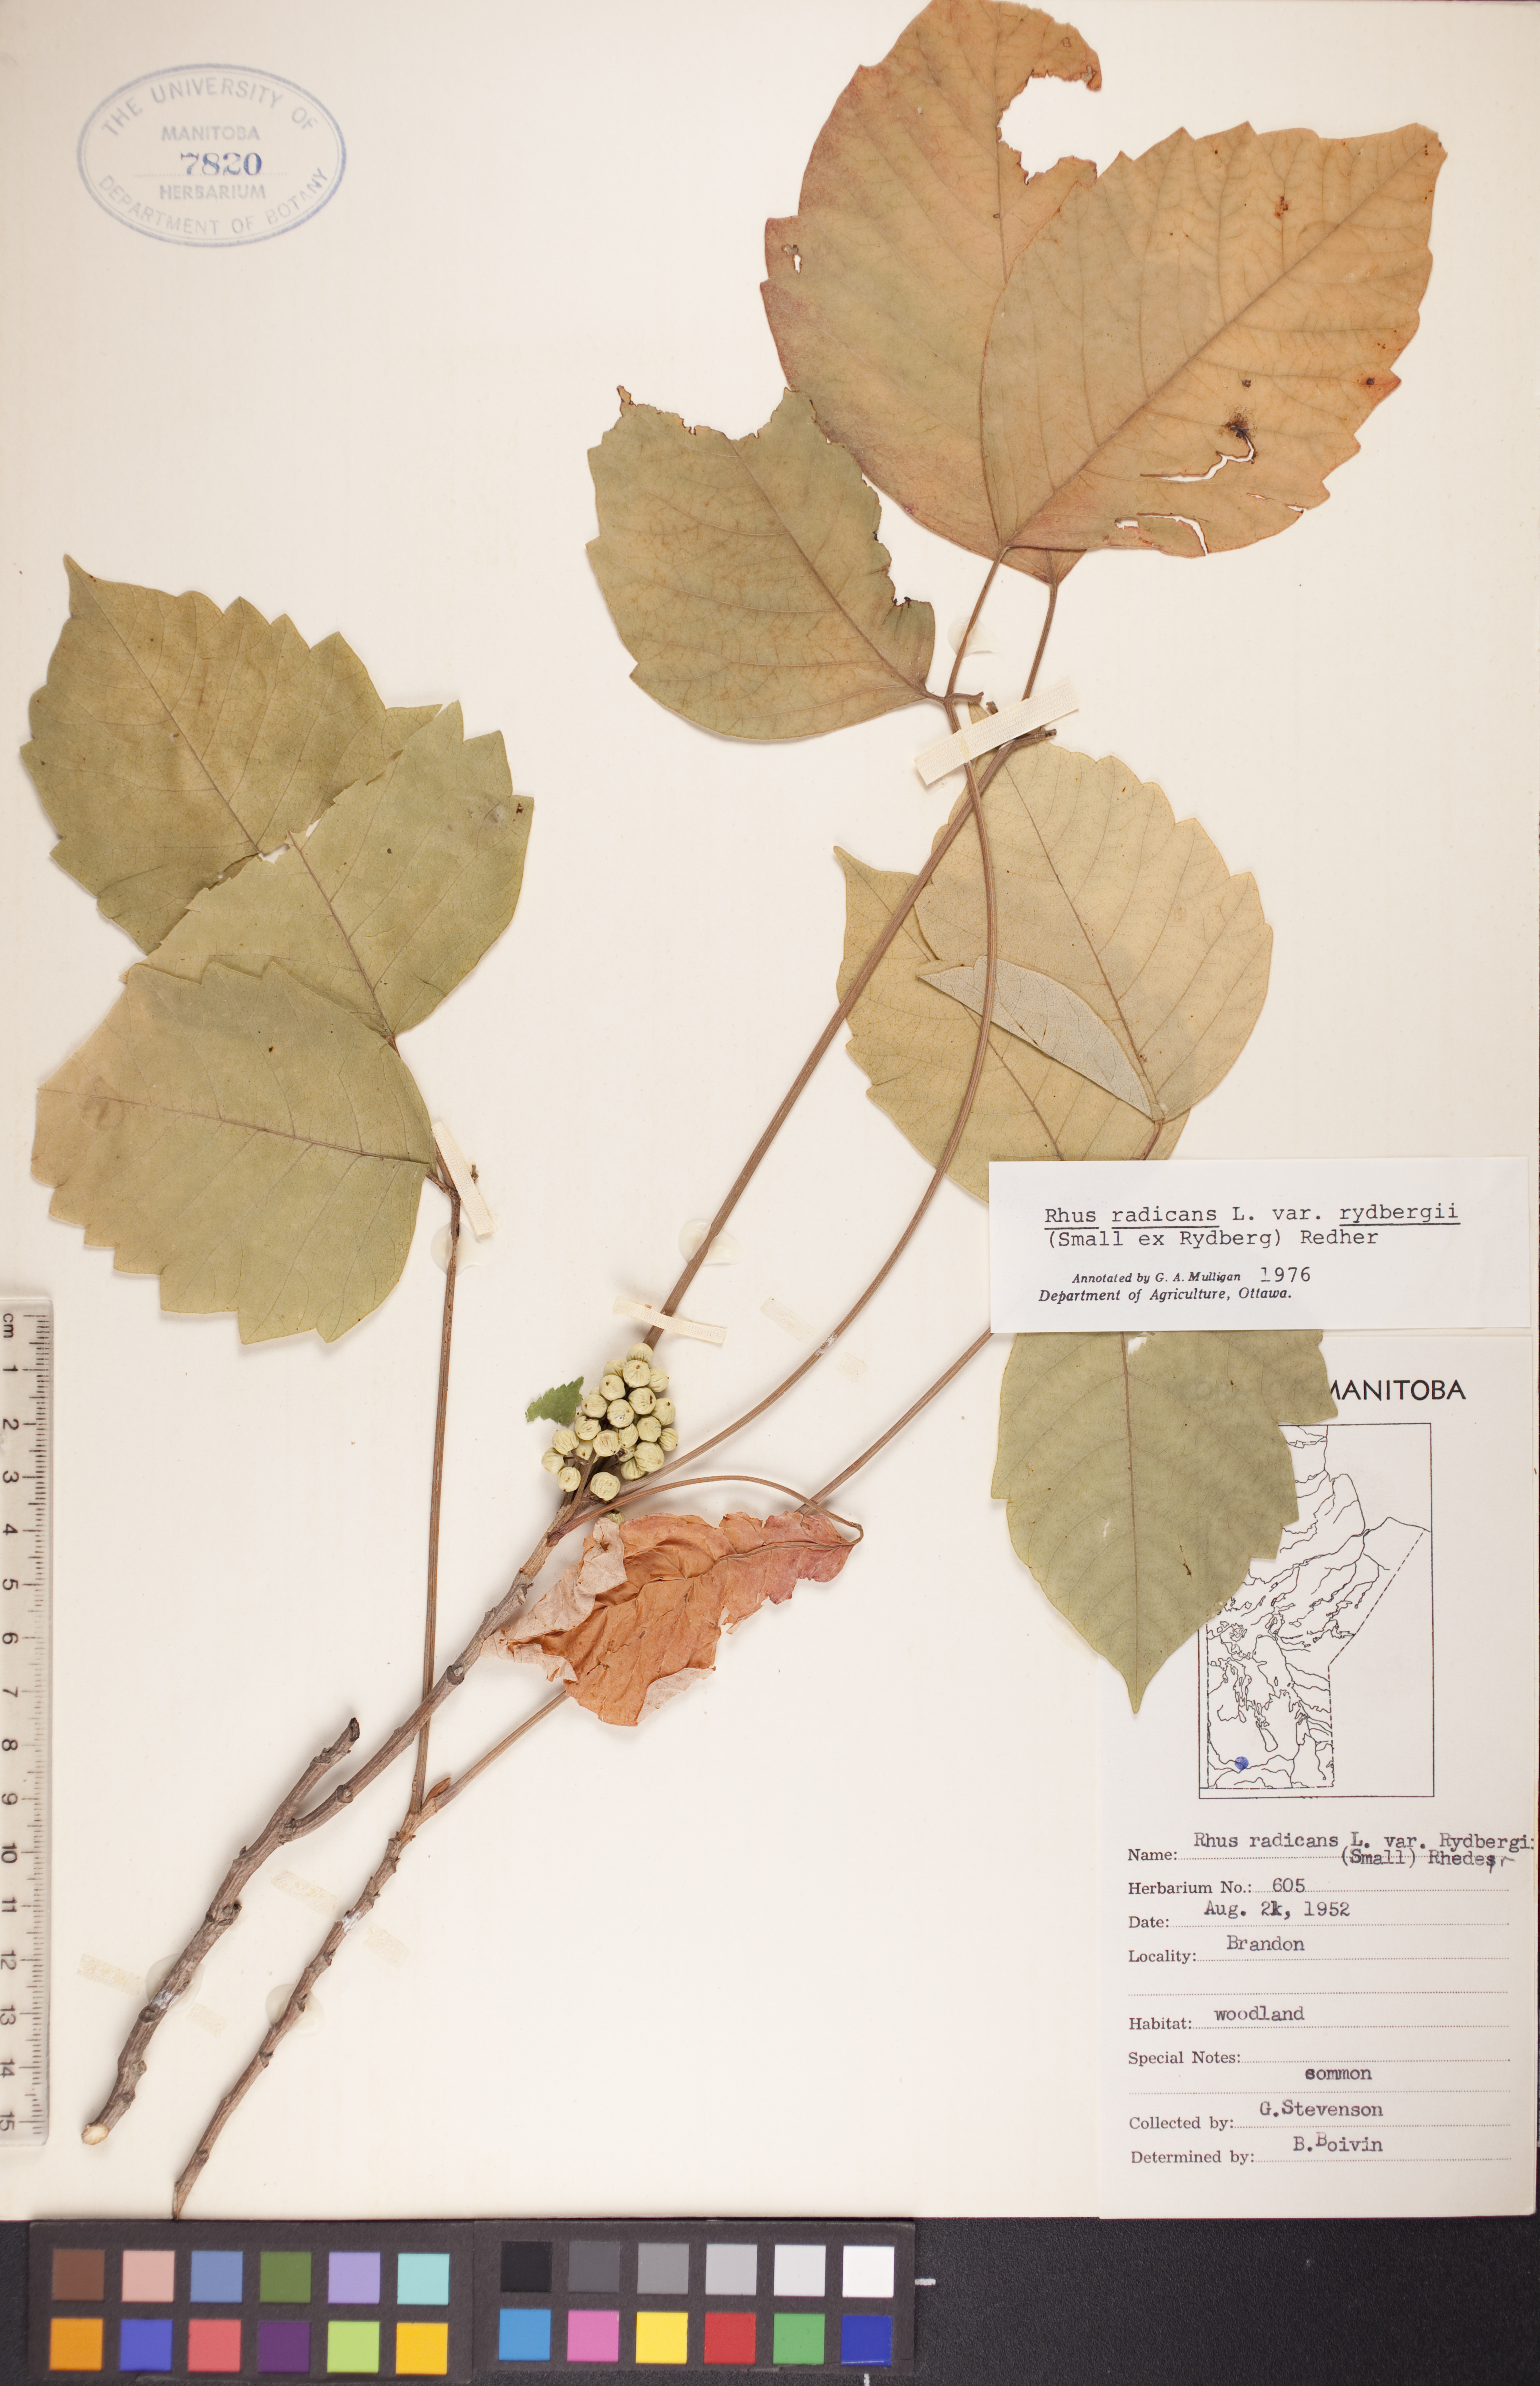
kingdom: Plantae
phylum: Tracheophyta
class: Magnoliopsida
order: Sapindales
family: Anacardiaceae
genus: Toxicodendron
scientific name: Toxicodendron rydbergii
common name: Rydberg's poison-ivy
